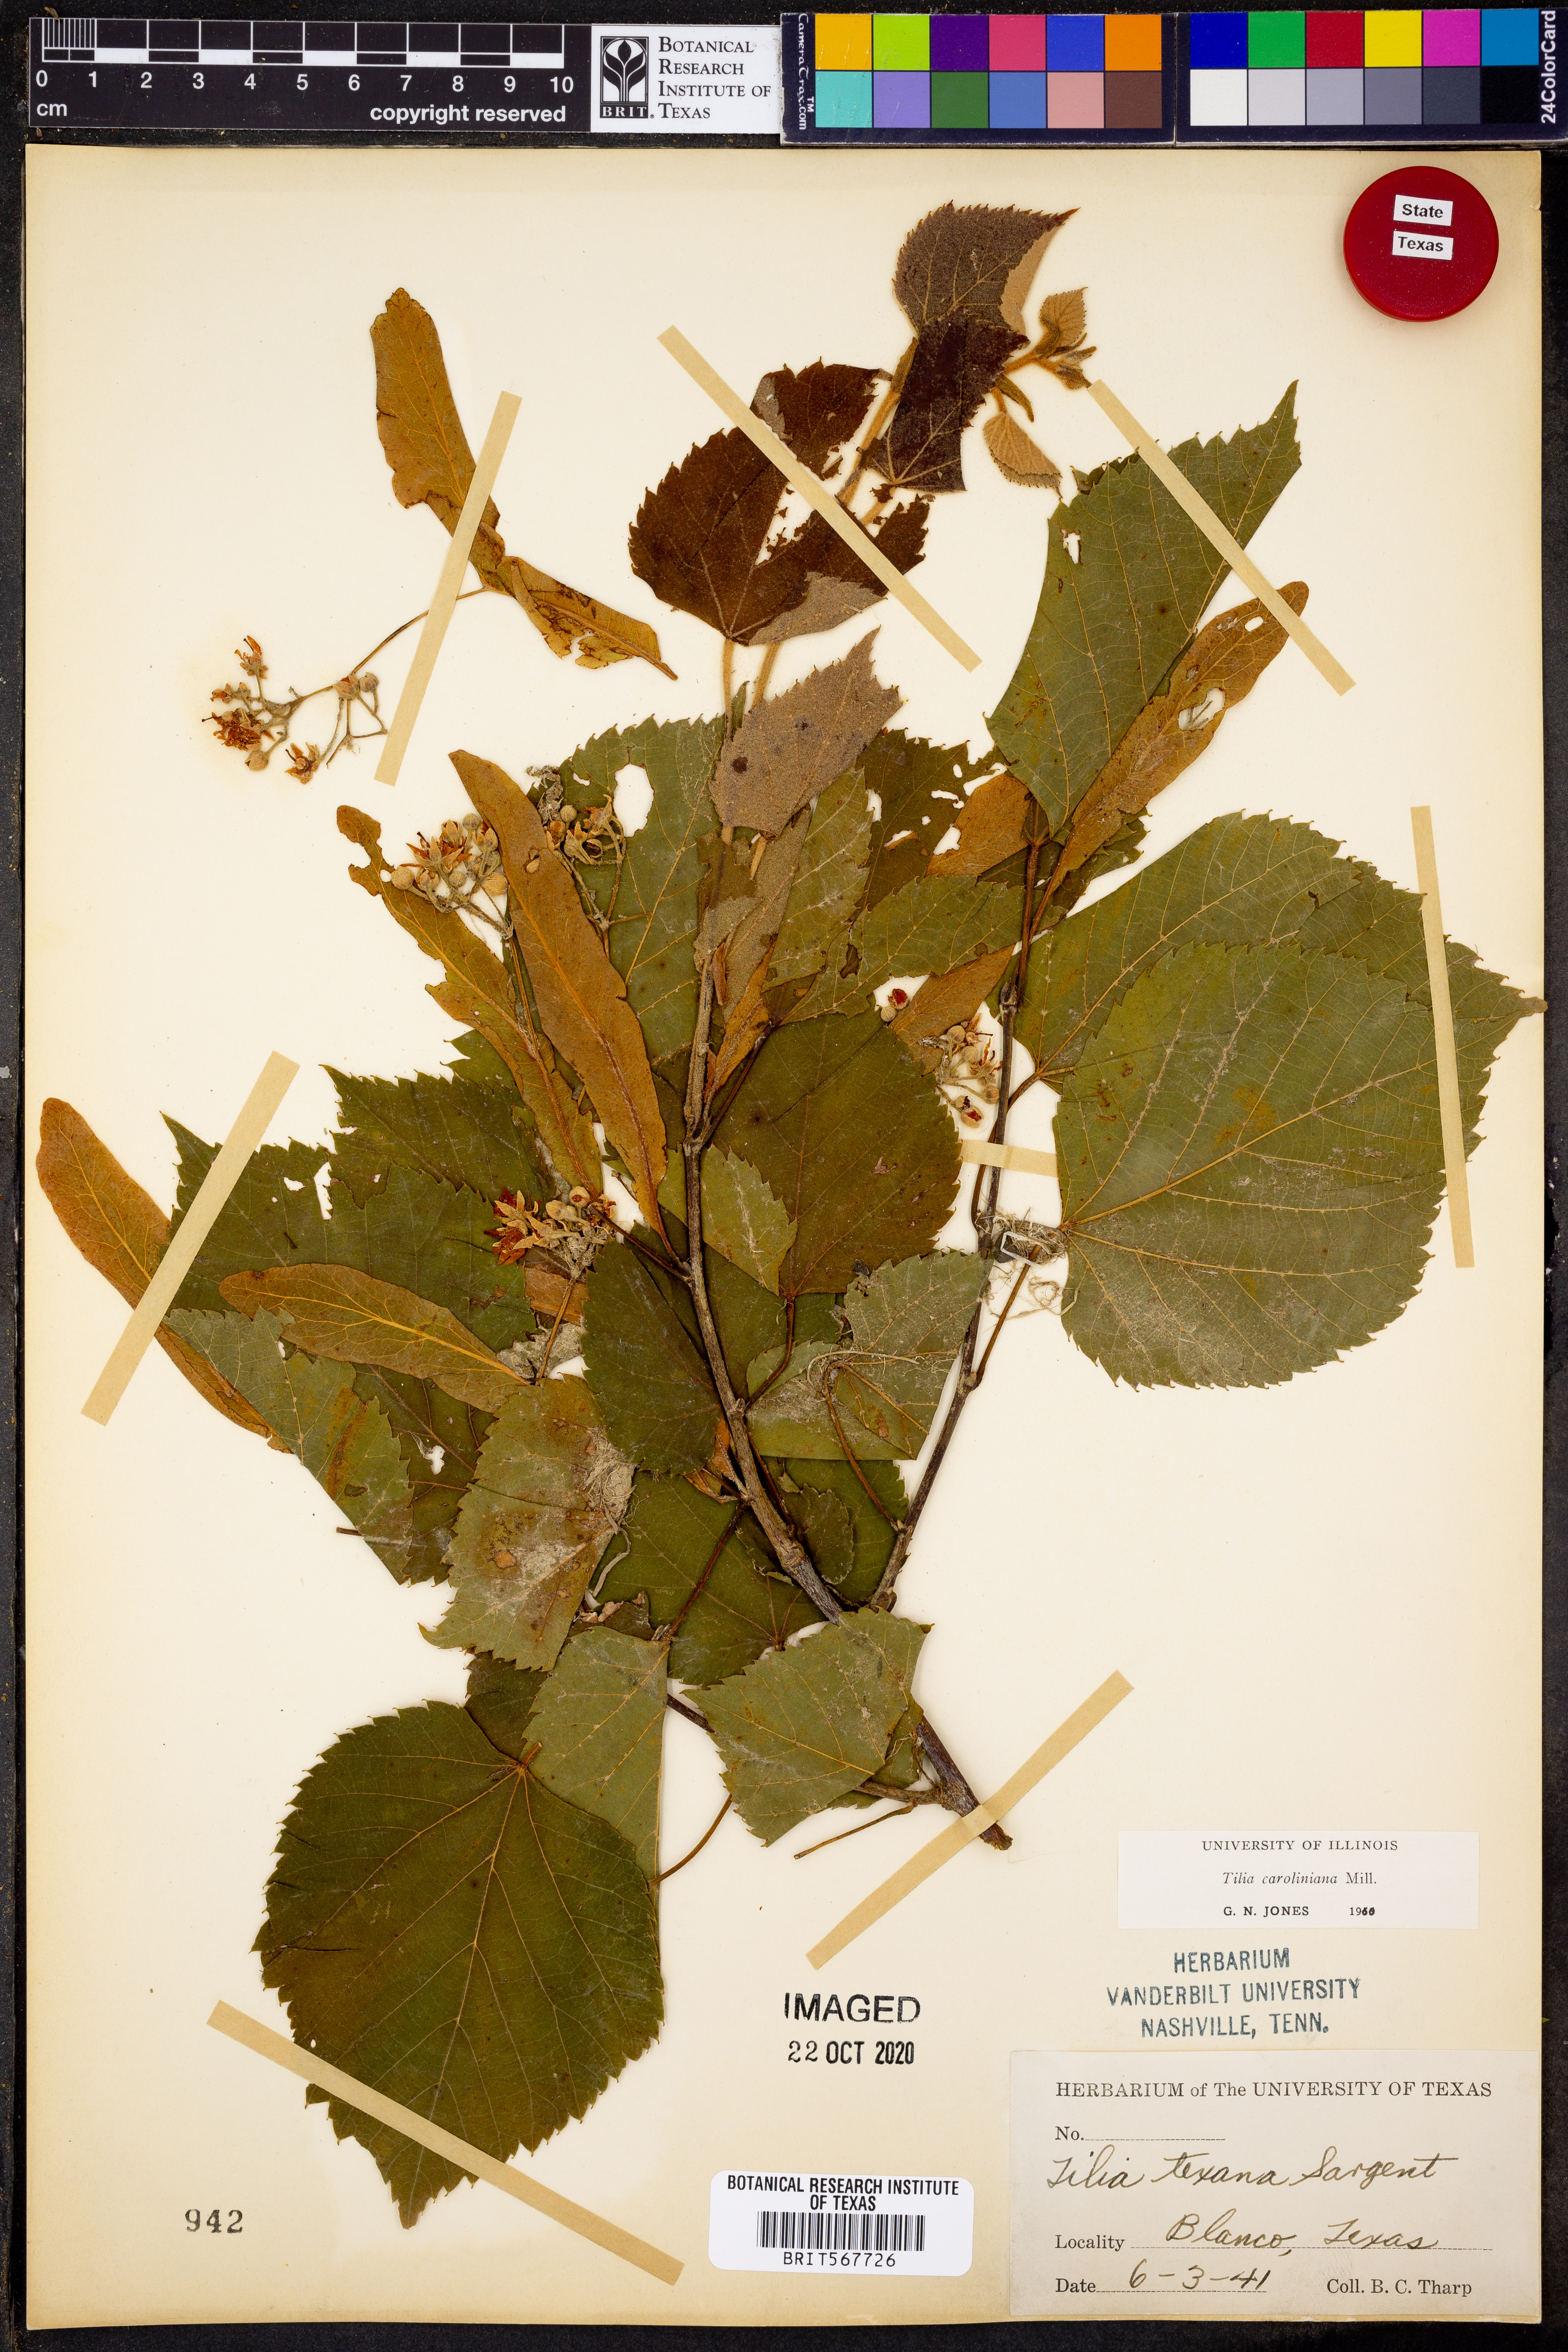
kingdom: Plantae
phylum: Tracheophyta
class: Magnoliopsida
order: Malvales
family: Malvaceae
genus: Tilia
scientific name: Tilia americana
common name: Basswood
